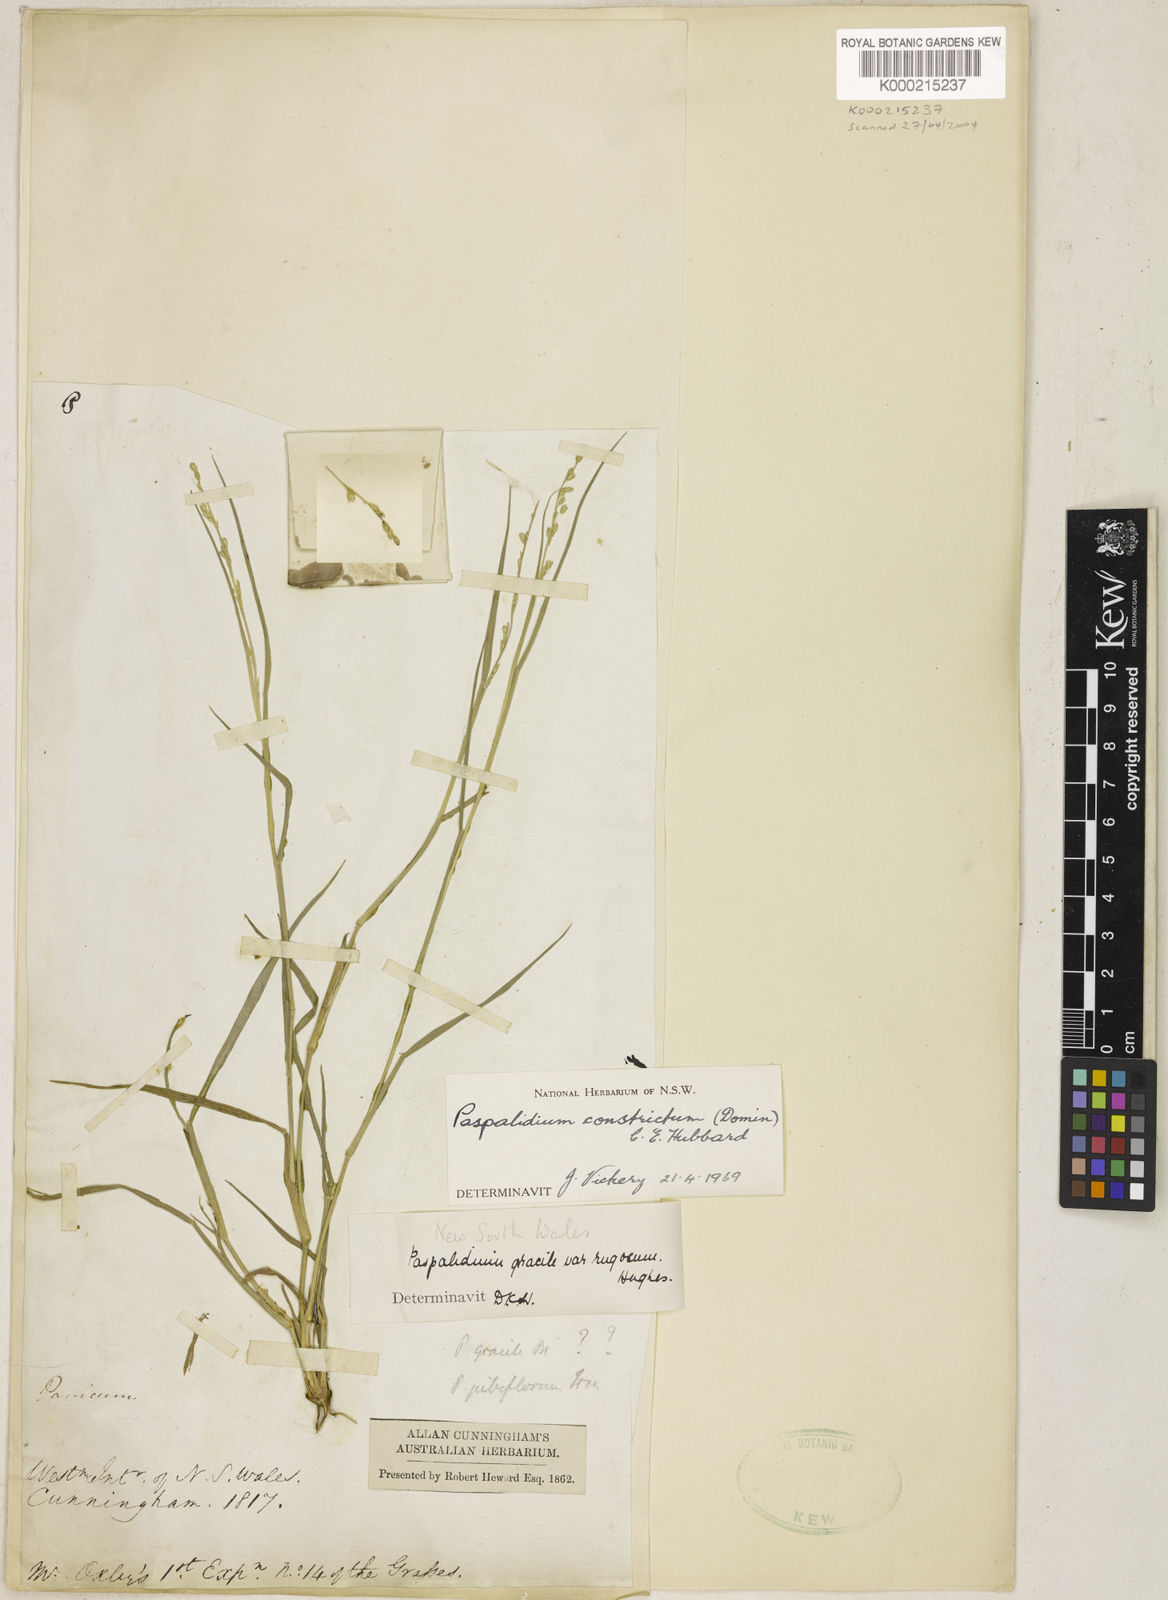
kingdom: Plantae
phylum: Tracheophyta
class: Liliopsida
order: Poales
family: Poaceae
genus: Setaria
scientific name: Setaria constricta
